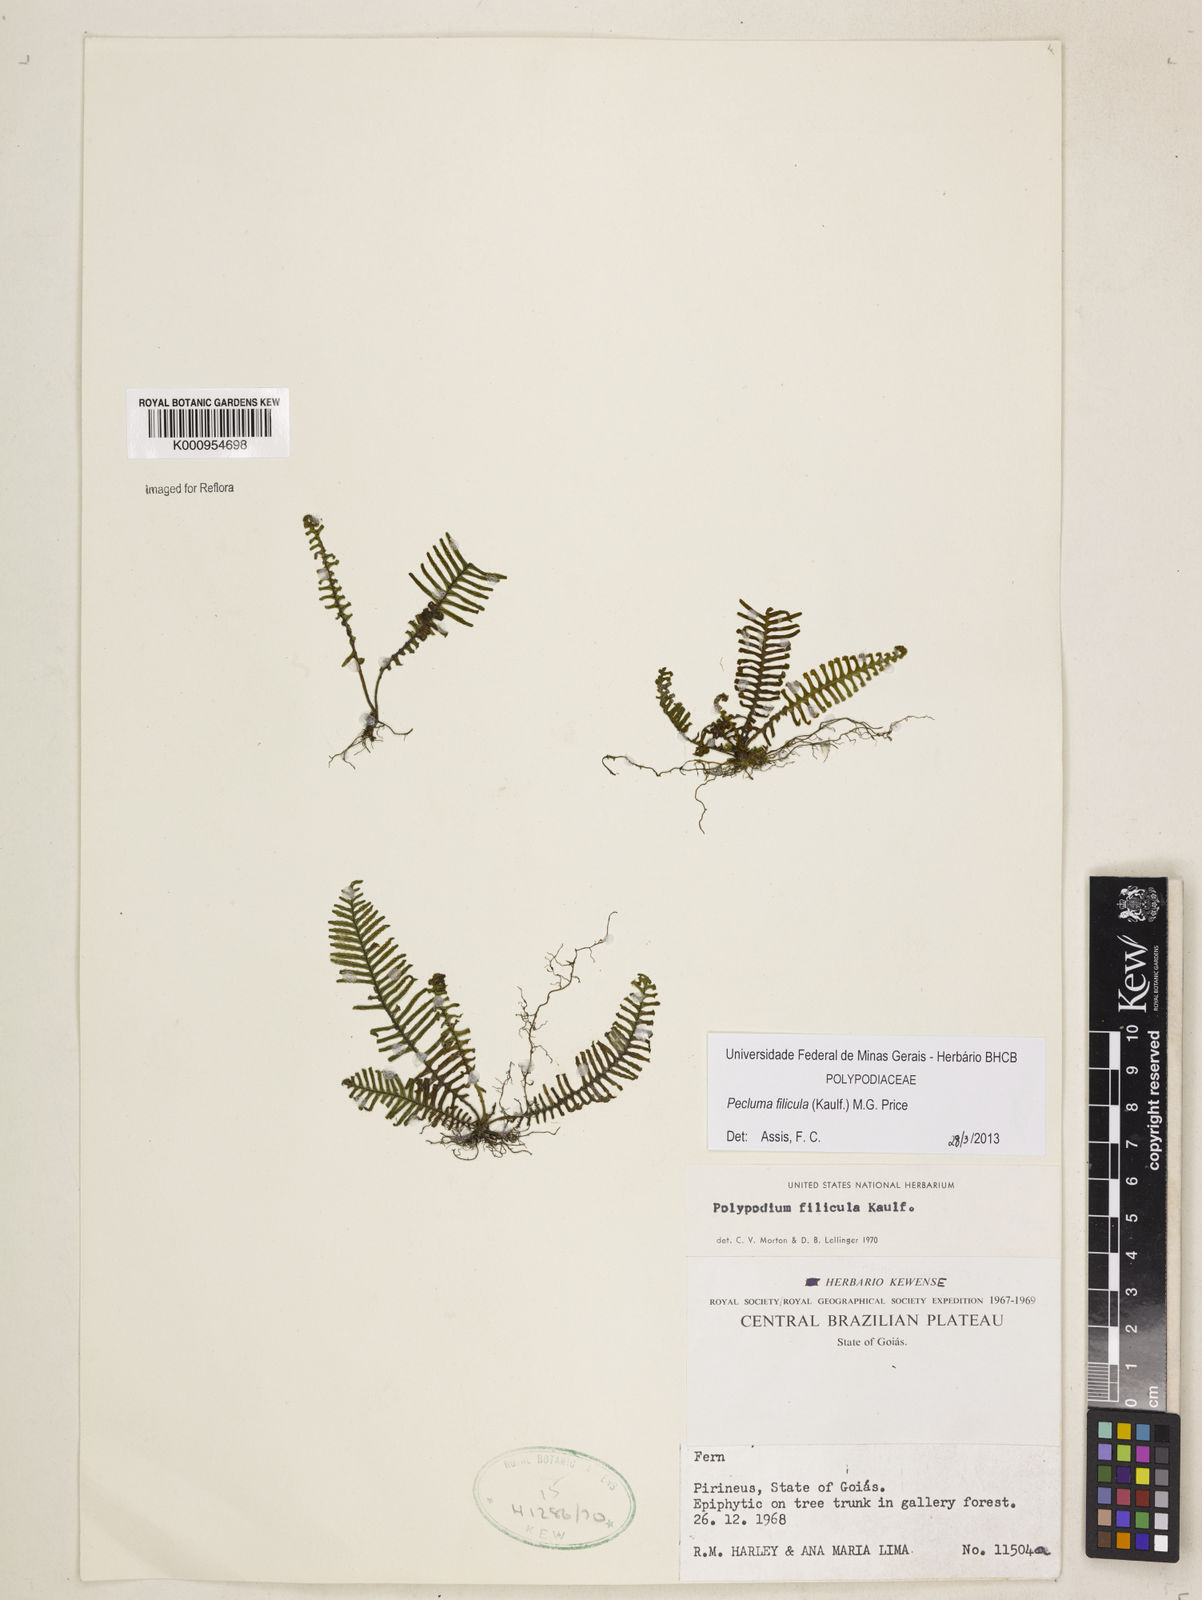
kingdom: Plantae
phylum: Tracheophyta
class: Polypodiopsida
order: Polypodiales
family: Polypodiaceae
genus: Pecluma
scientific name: Pecluma filicula
